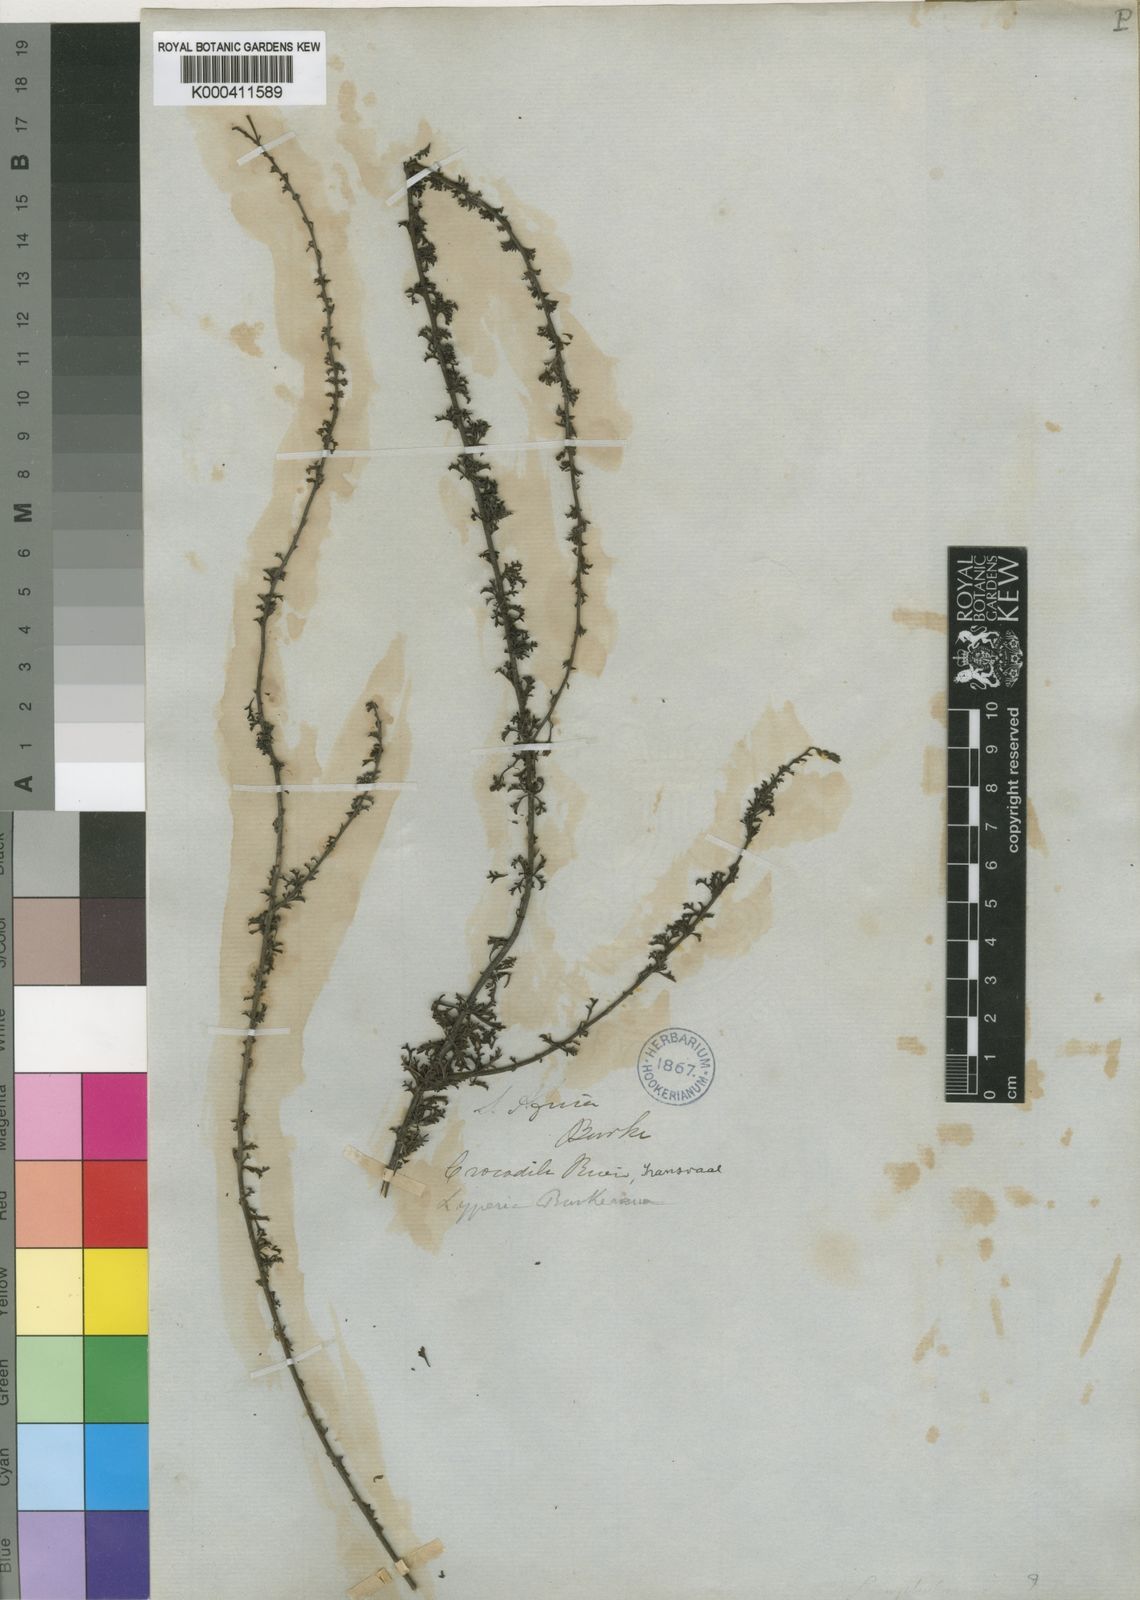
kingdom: Plantae
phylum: Tracheophyta
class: Magnoliopsida
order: Lamiales
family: Scrophulariaceae
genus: Jamesbrittenia
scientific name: Jamesbrittenia burkeana
